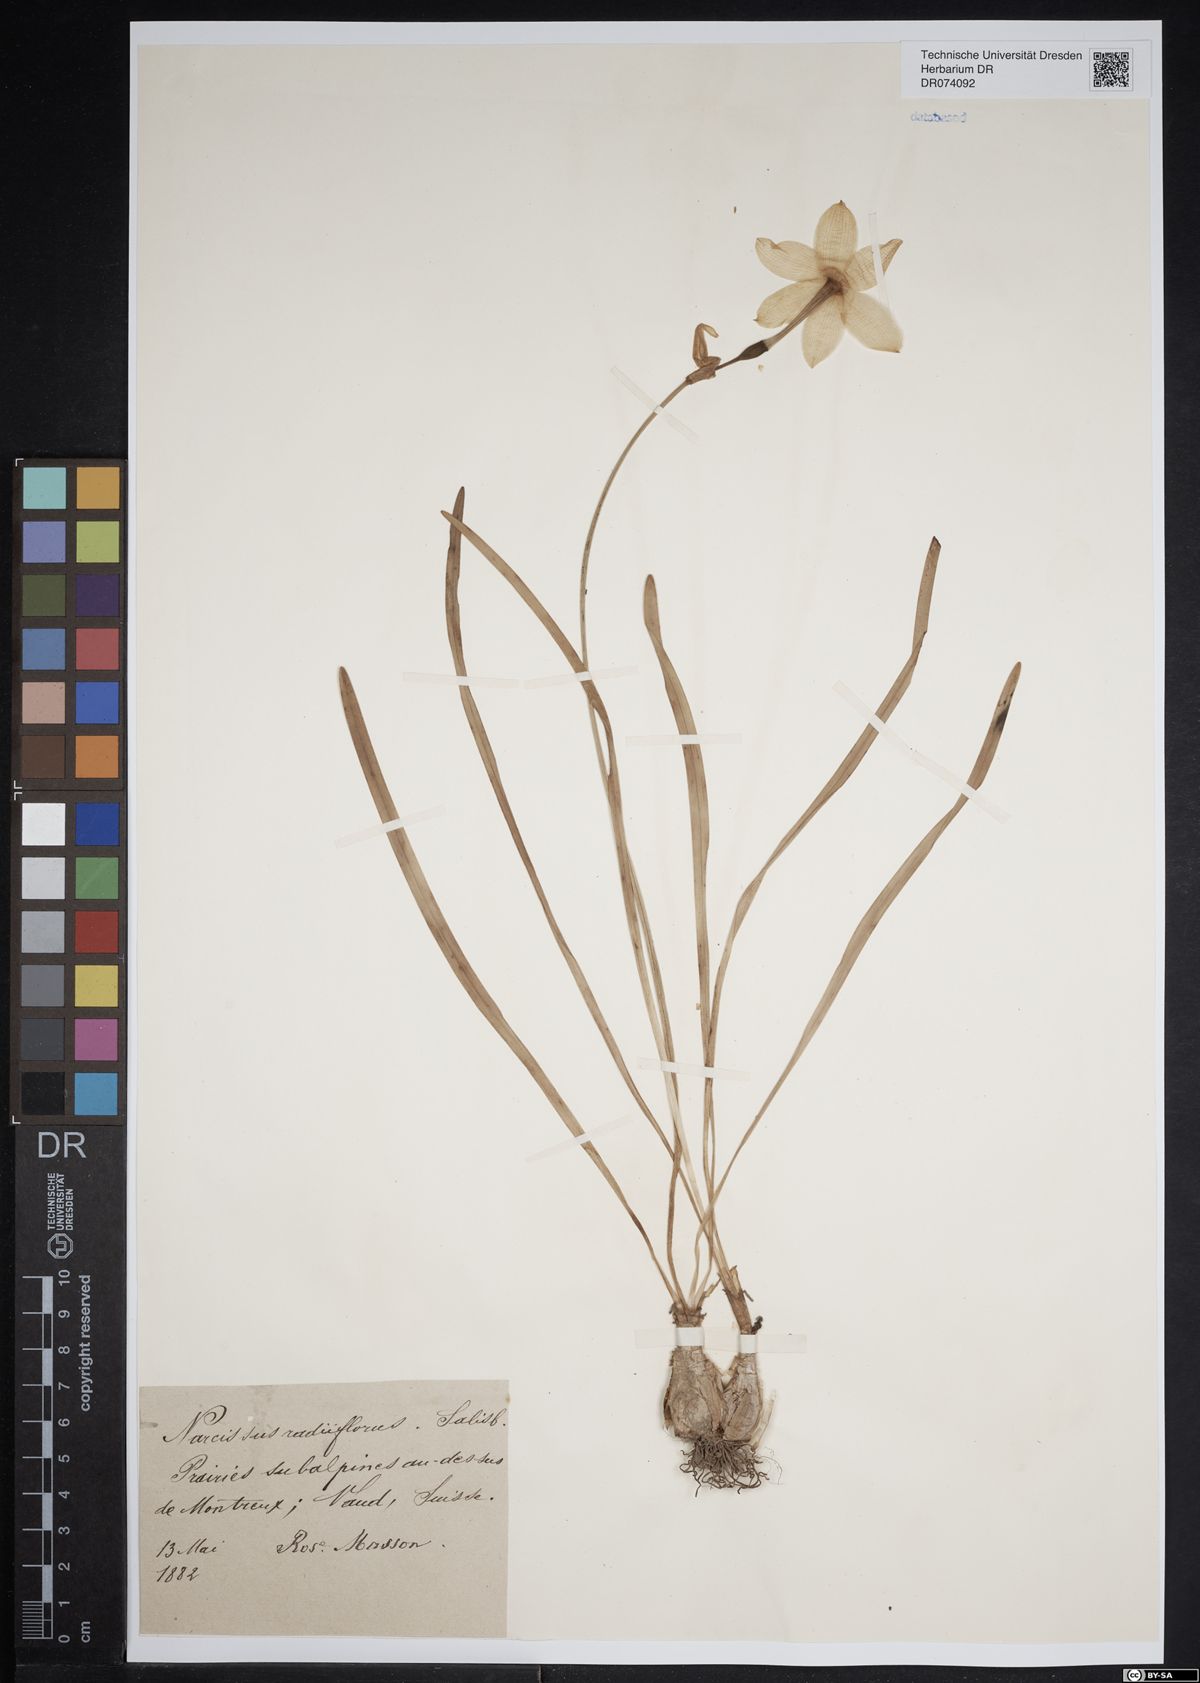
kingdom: Plantae
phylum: Tracheophyta
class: Liliopsida
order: Asparagales
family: Amaryllidaceae
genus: Narcissus
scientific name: Narcissus poeticus
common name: Pheasant's-eye daffodil
